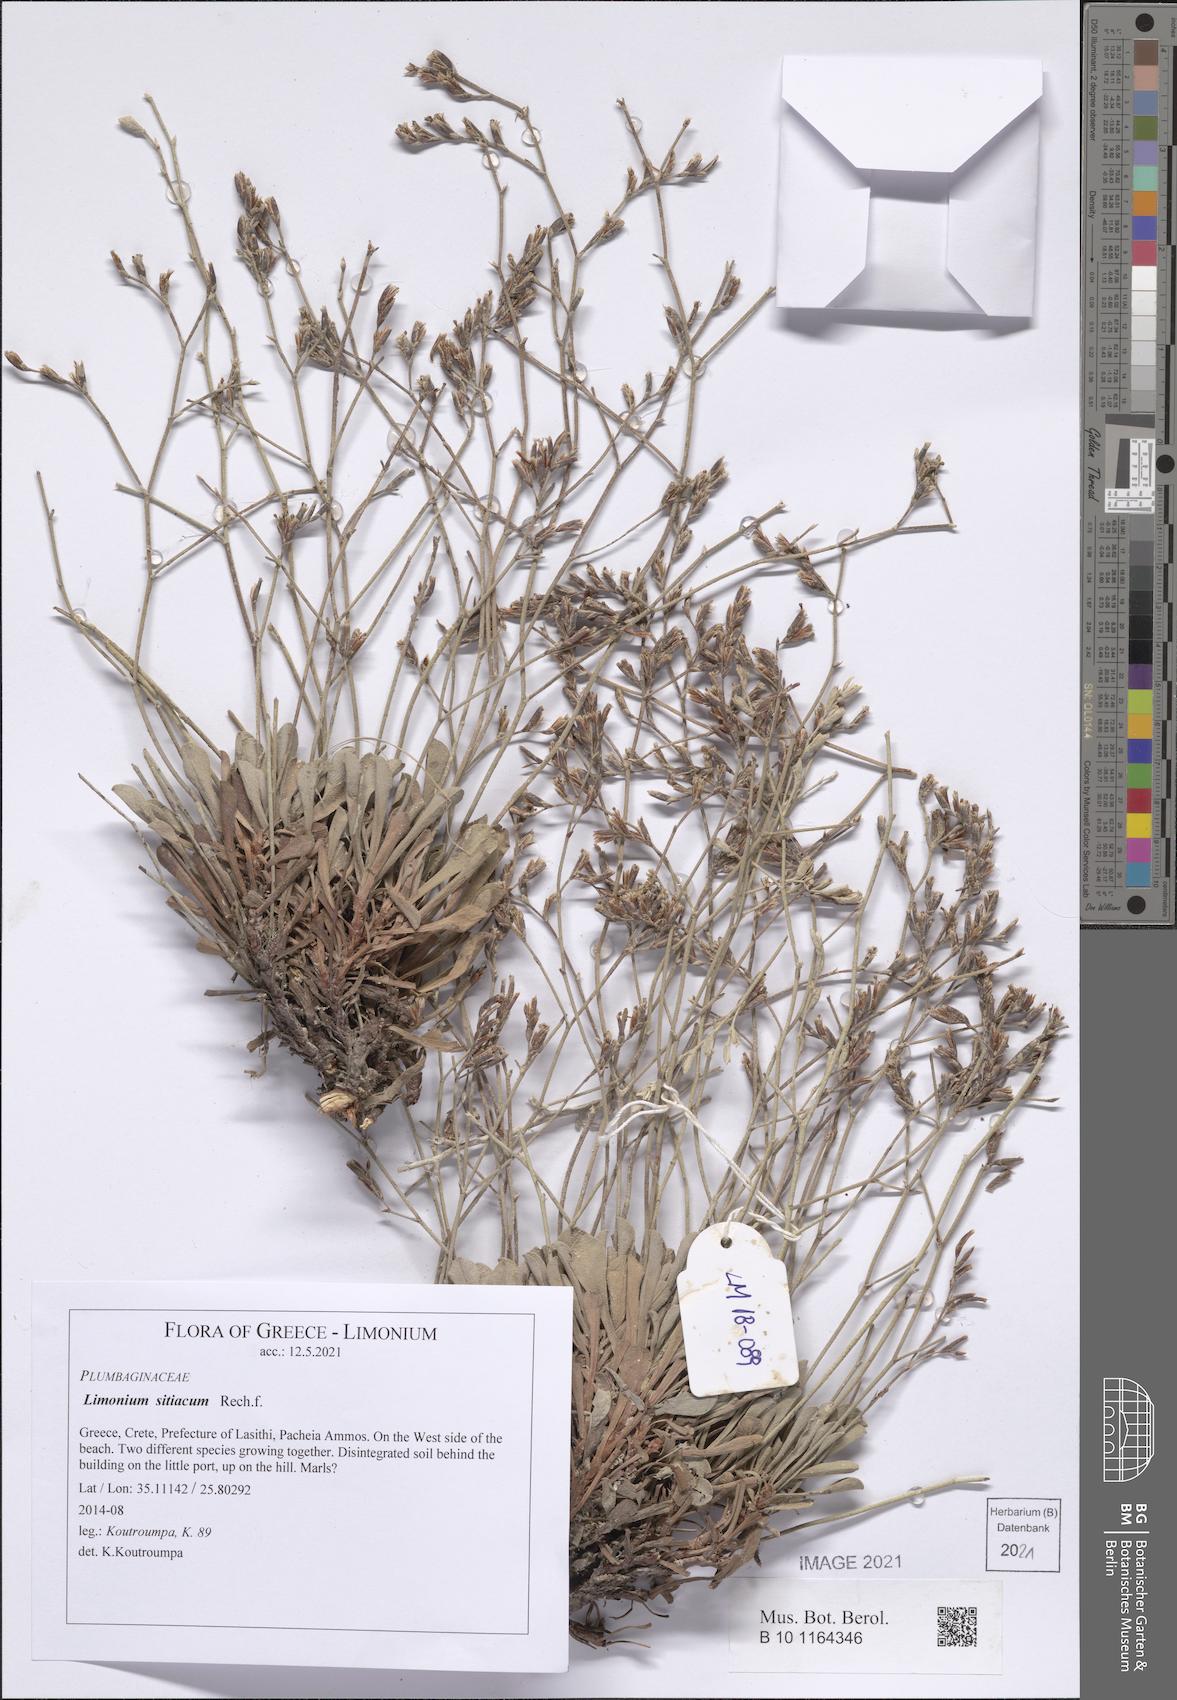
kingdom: Plantae
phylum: Tracheophyta
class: Magnoliopsida
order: Caryophyllales
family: Plumbaginaceae
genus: Limonium
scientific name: Limonium sitiacum
